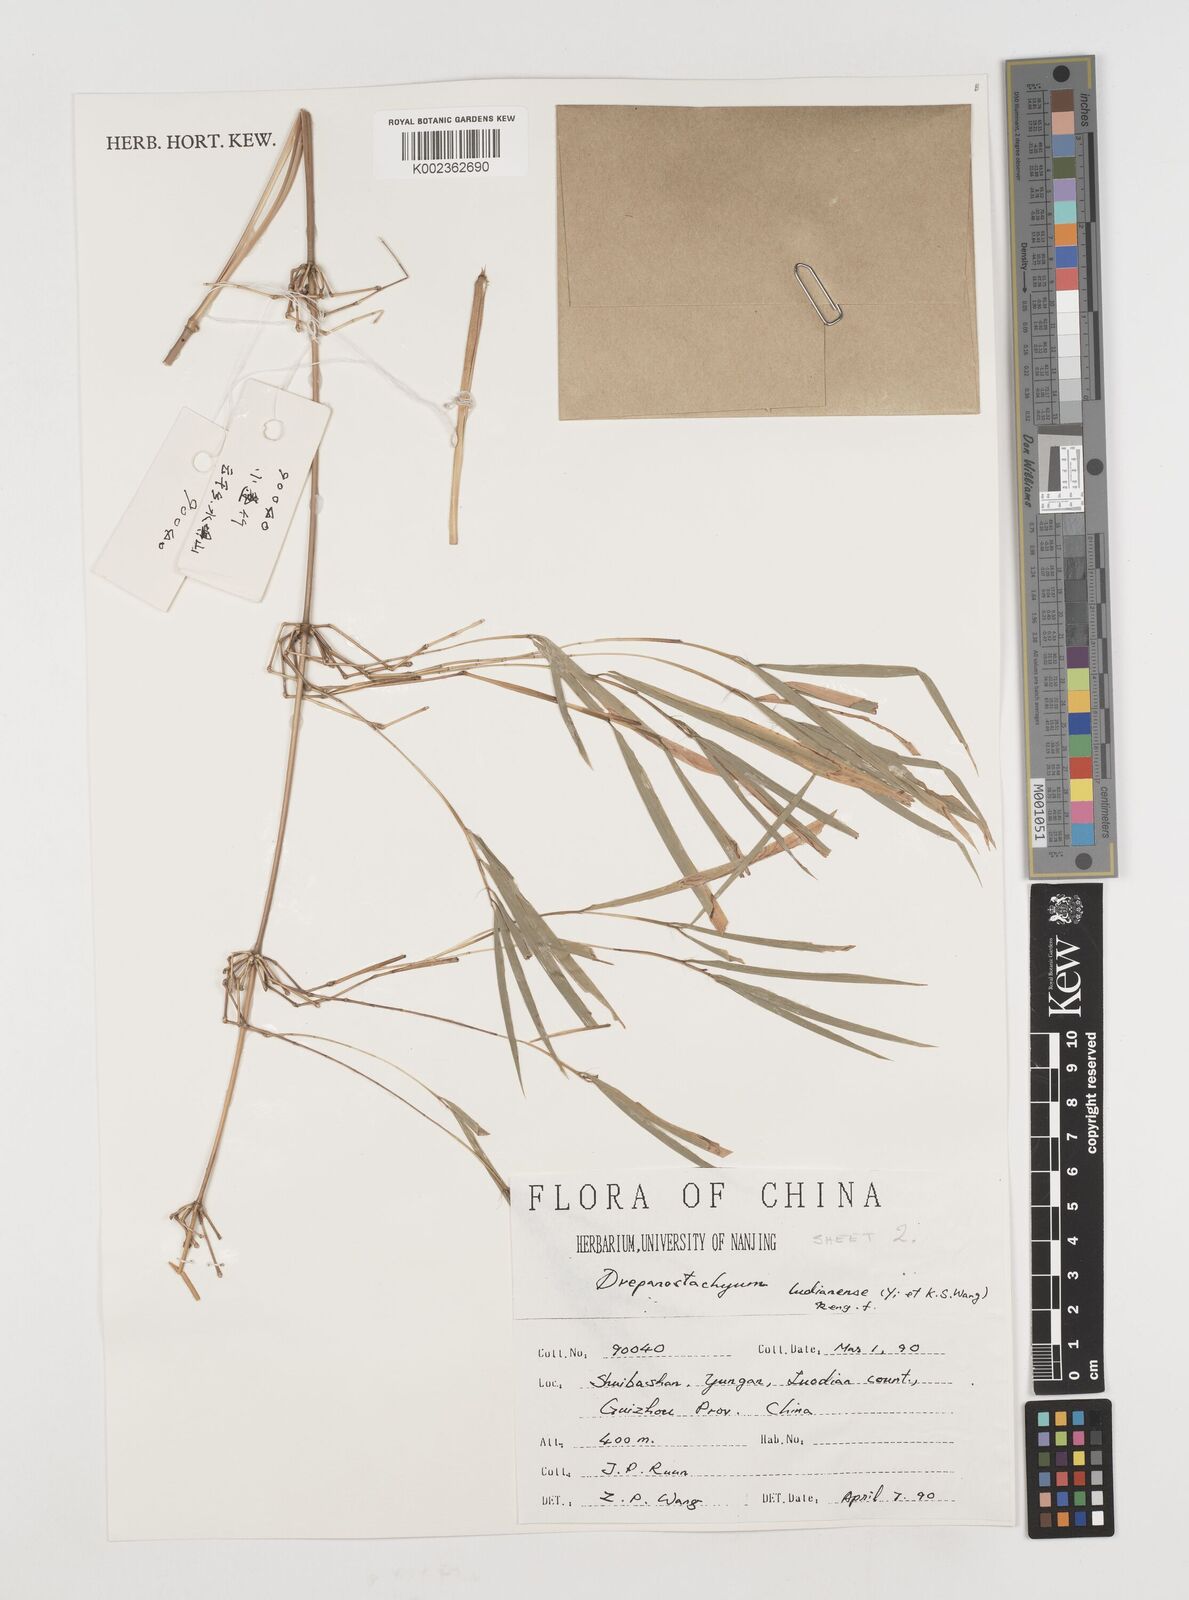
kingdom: Plantae
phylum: Tracheophyta
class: Liliopsida
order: Poales
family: Poaceae
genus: Acidosasa
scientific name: Acidosasa
